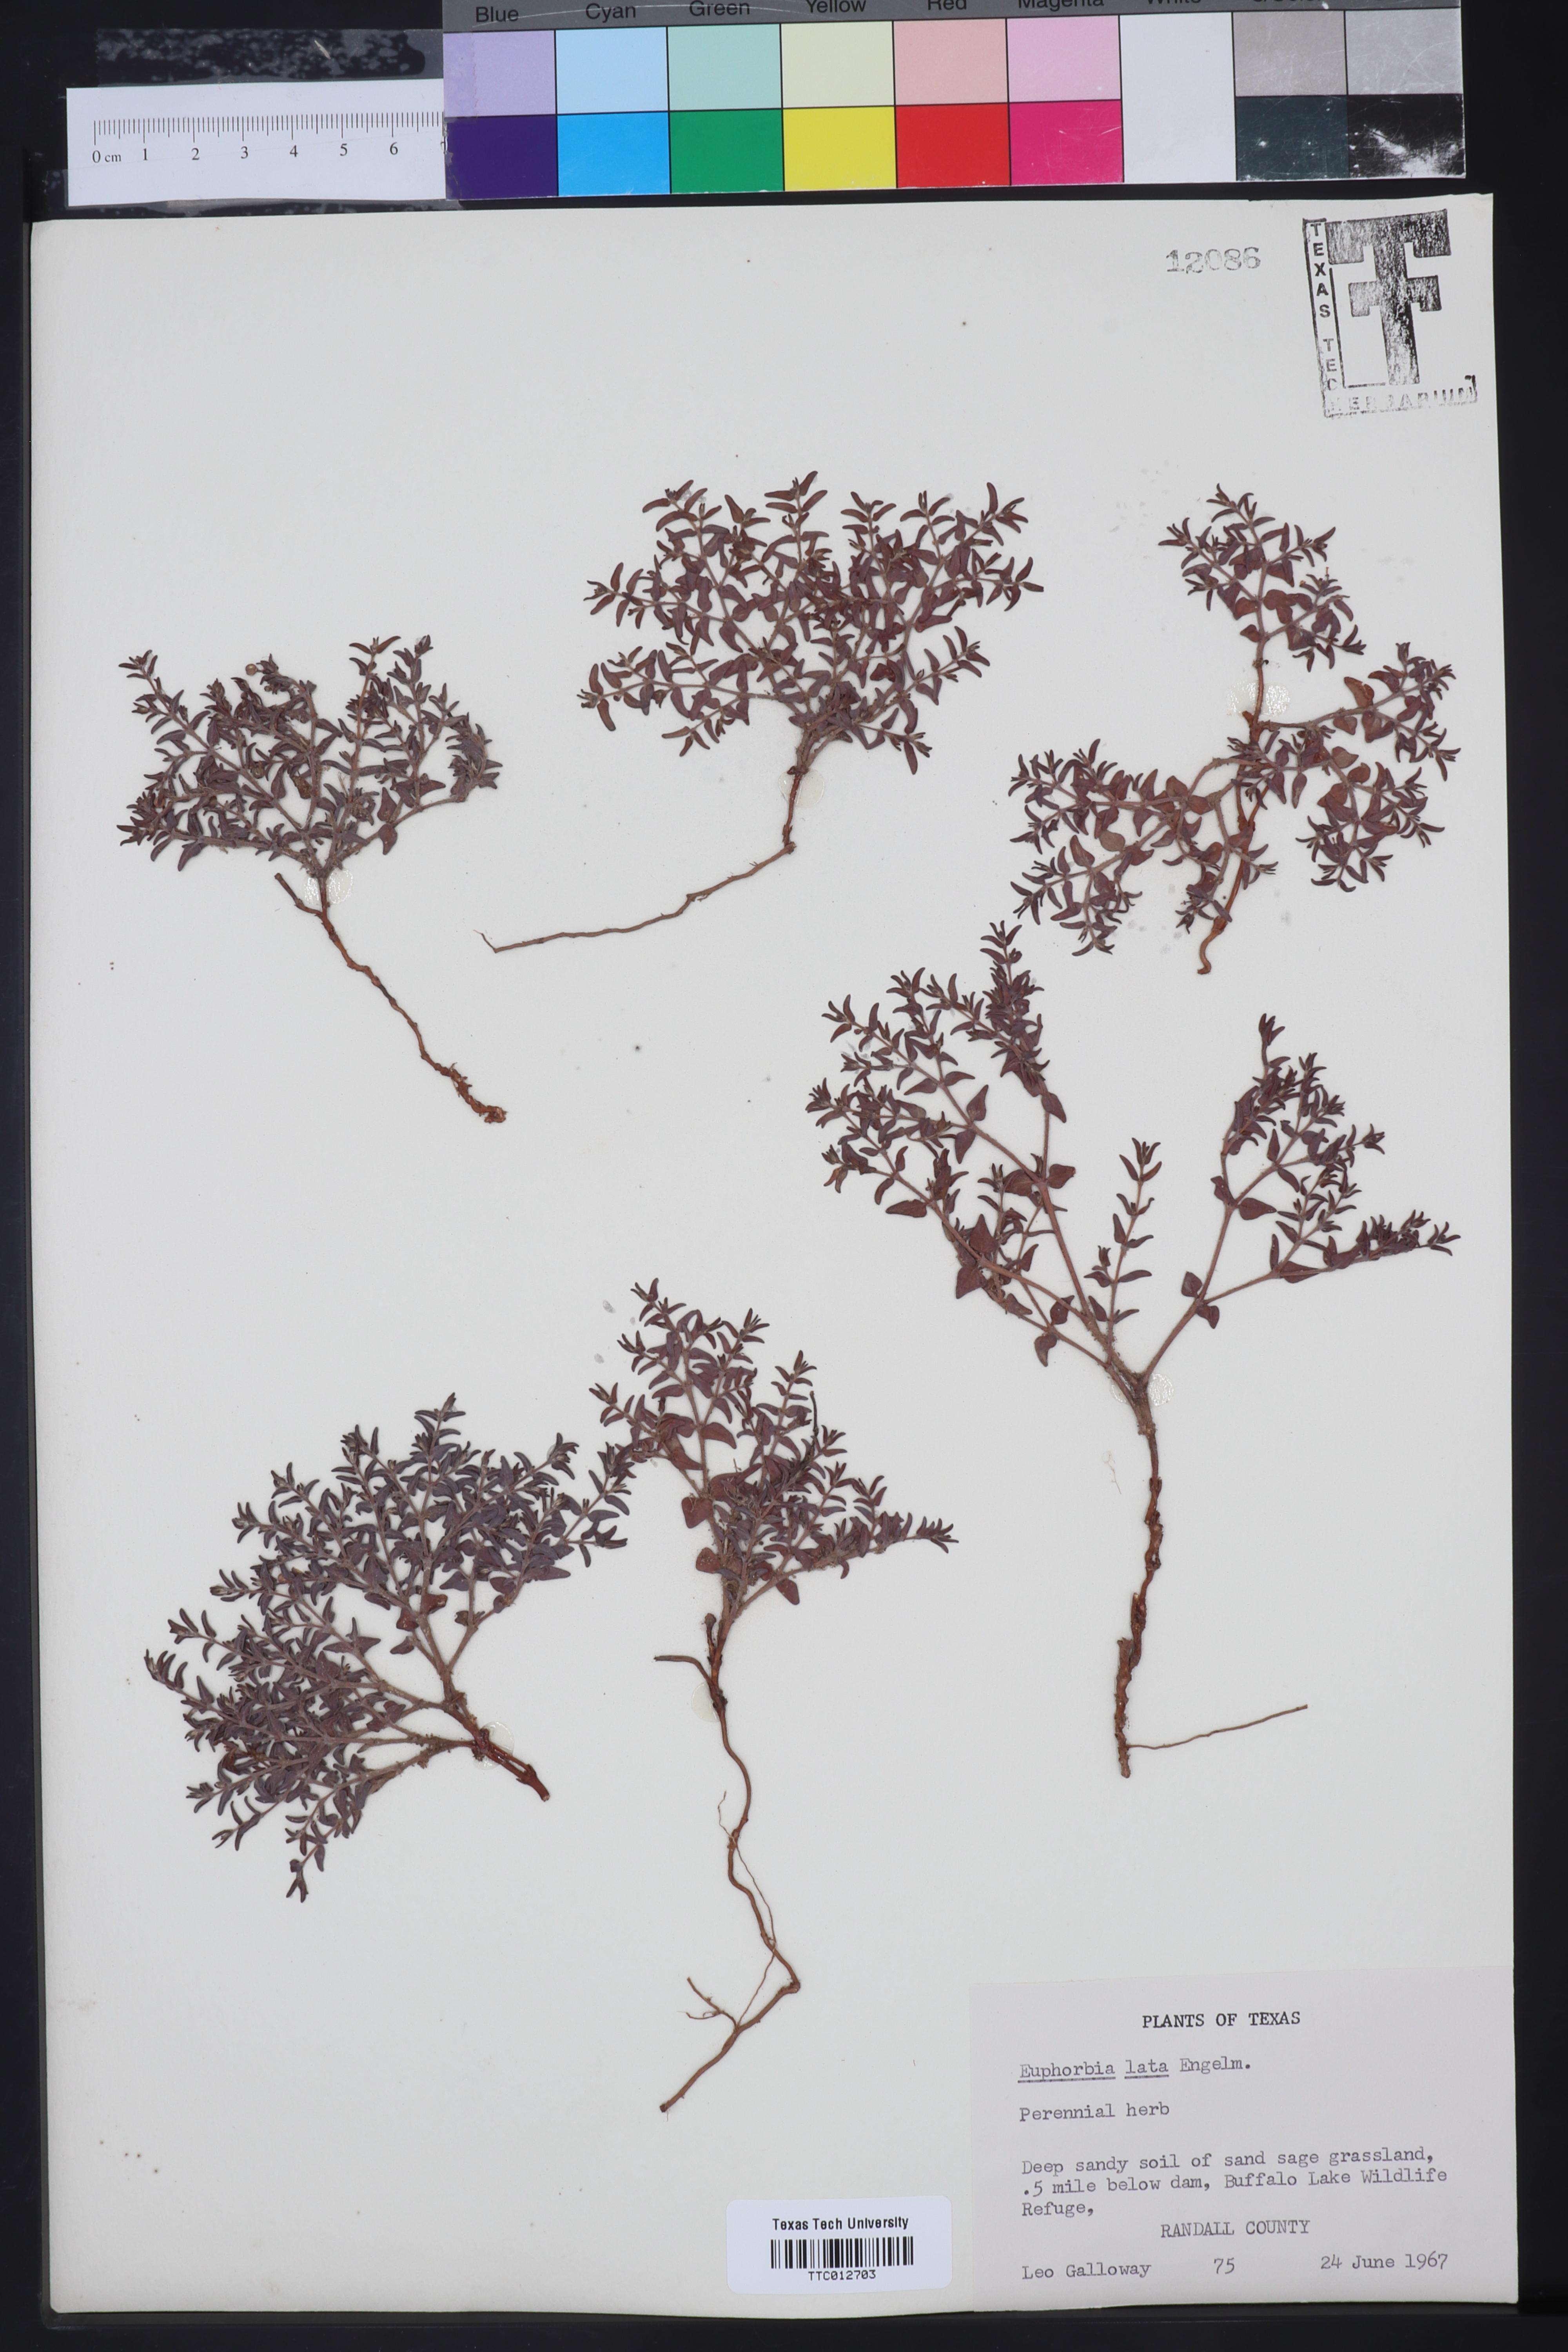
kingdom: Plantae
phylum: Tracheophyta
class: Magnoliopsida
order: Malpighiales
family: Euphorbiaceae
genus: Euphorbia
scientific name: Euphorbia lata
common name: Hoary euphorbia
